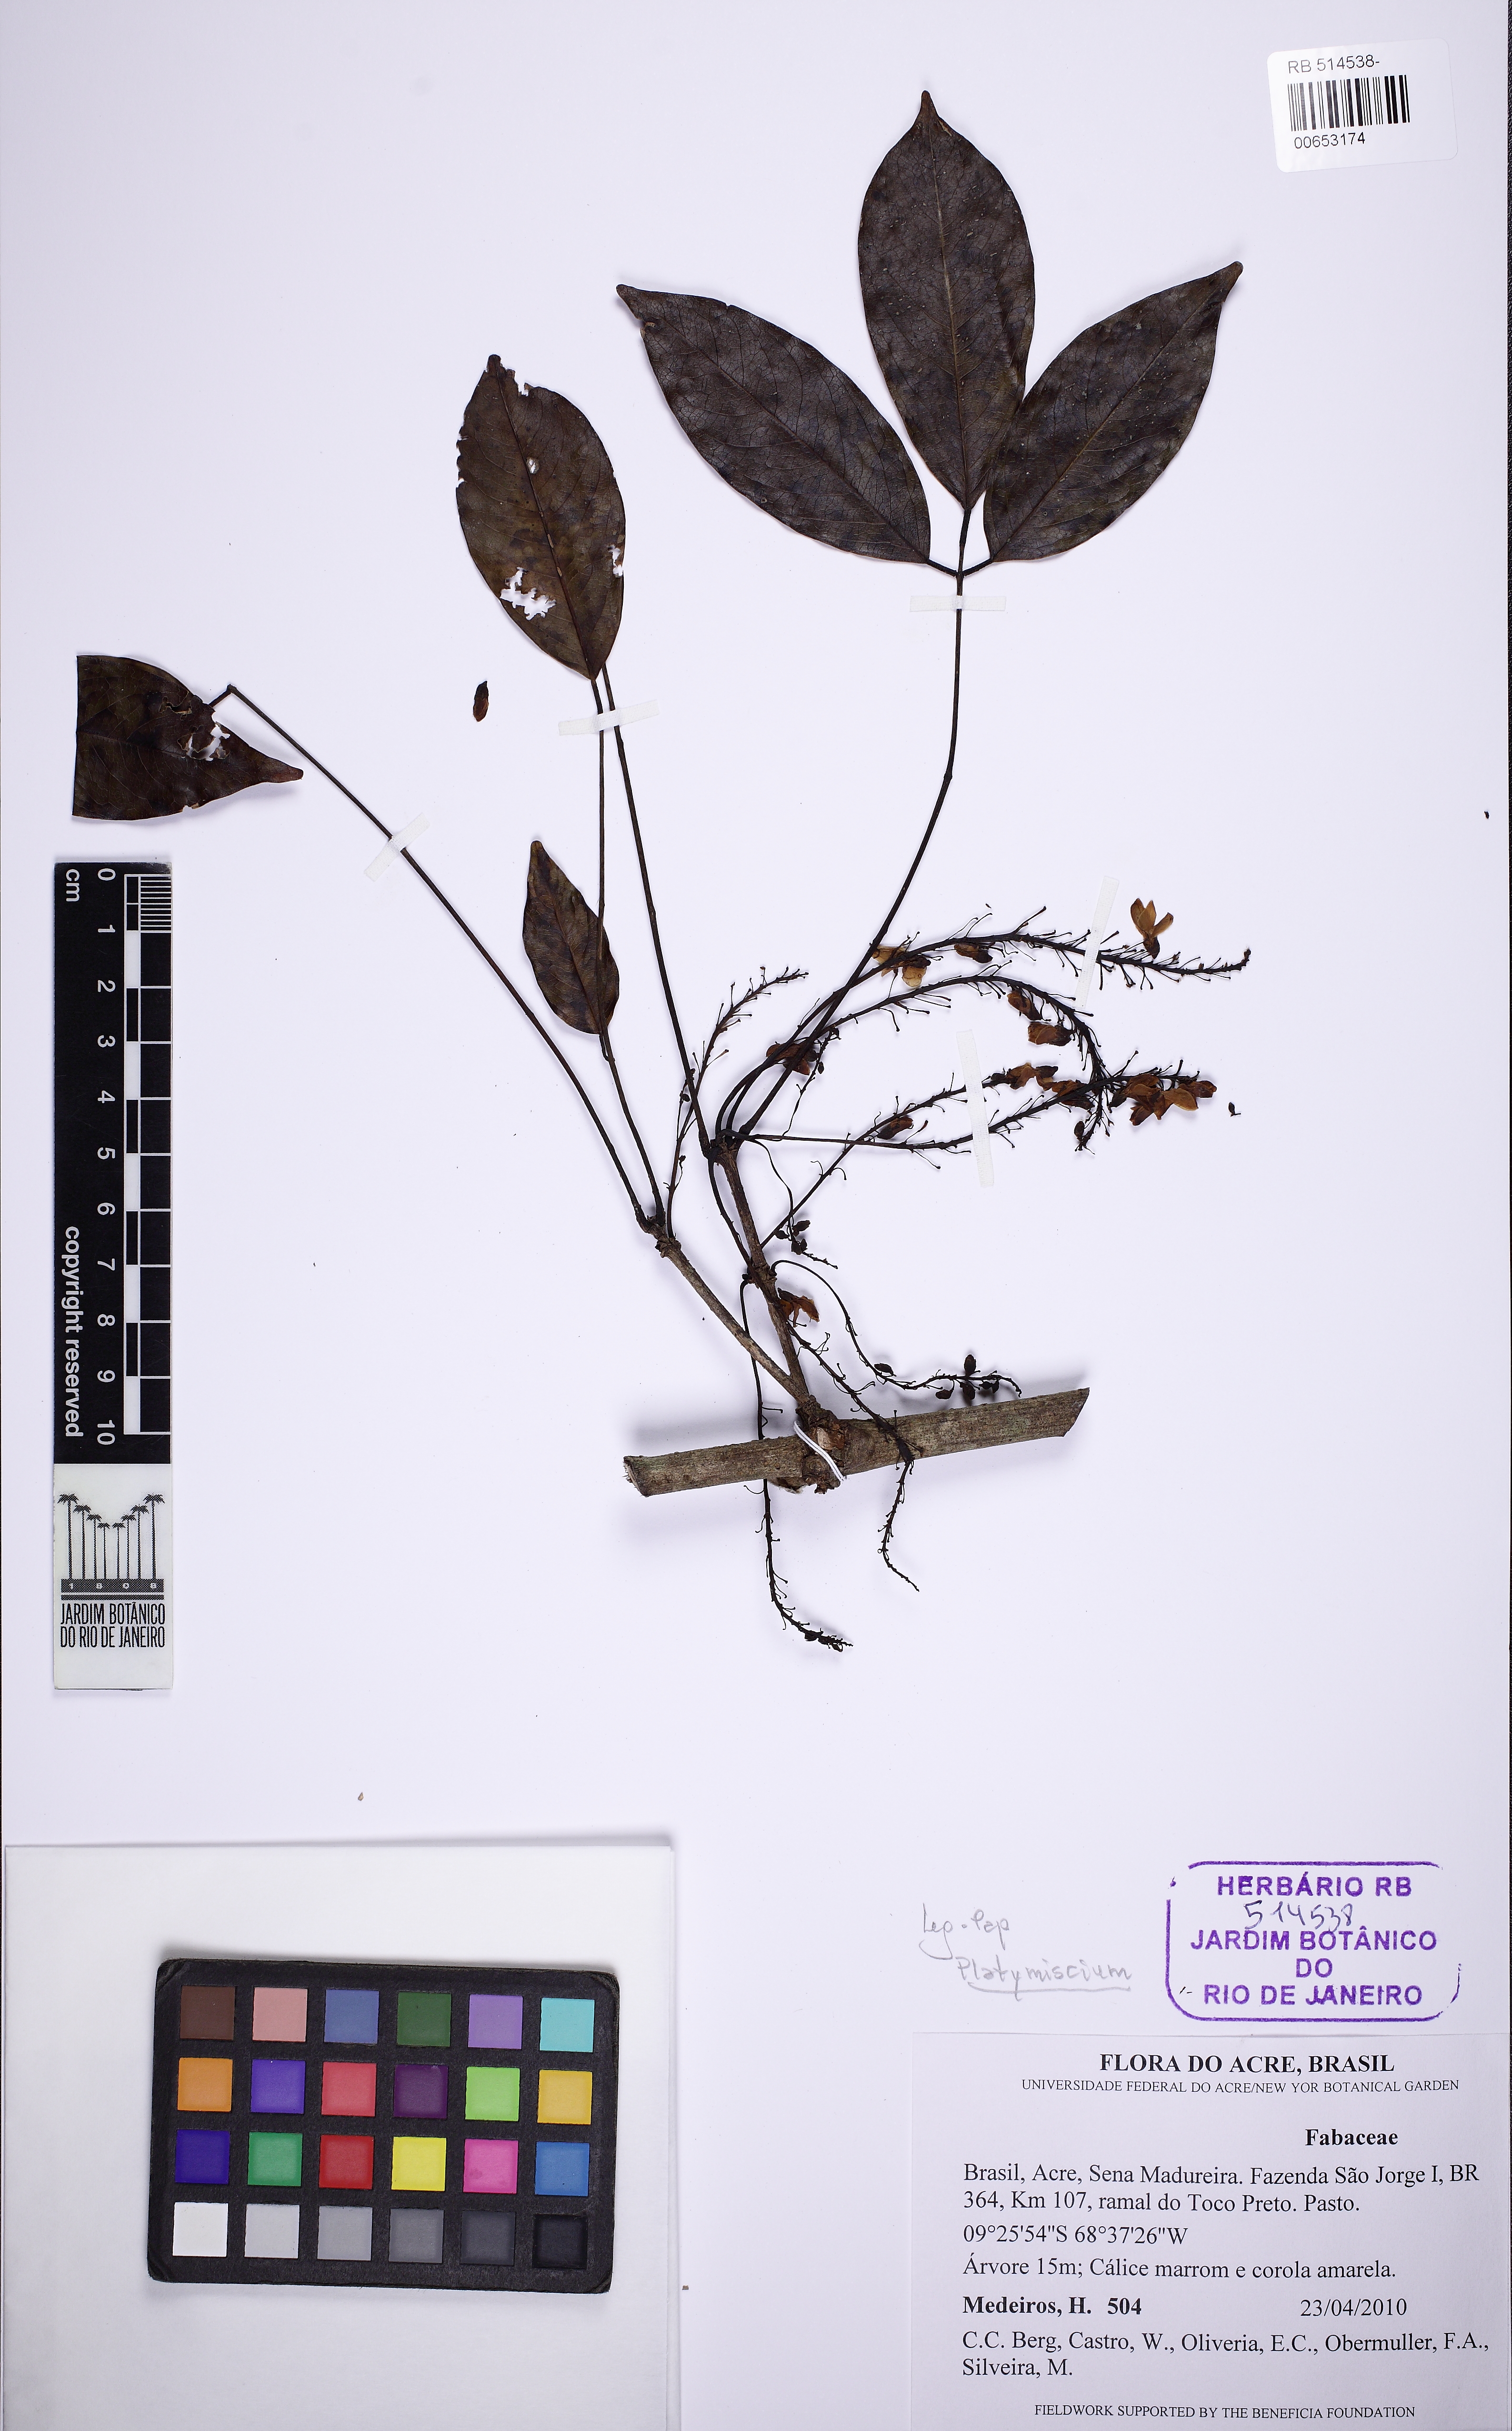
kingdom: Plantae
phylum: Tracheophyta
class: Magnoliopsida
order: Fabales
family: Fabaceae
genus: Platymiscium
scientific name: Platymiscium
